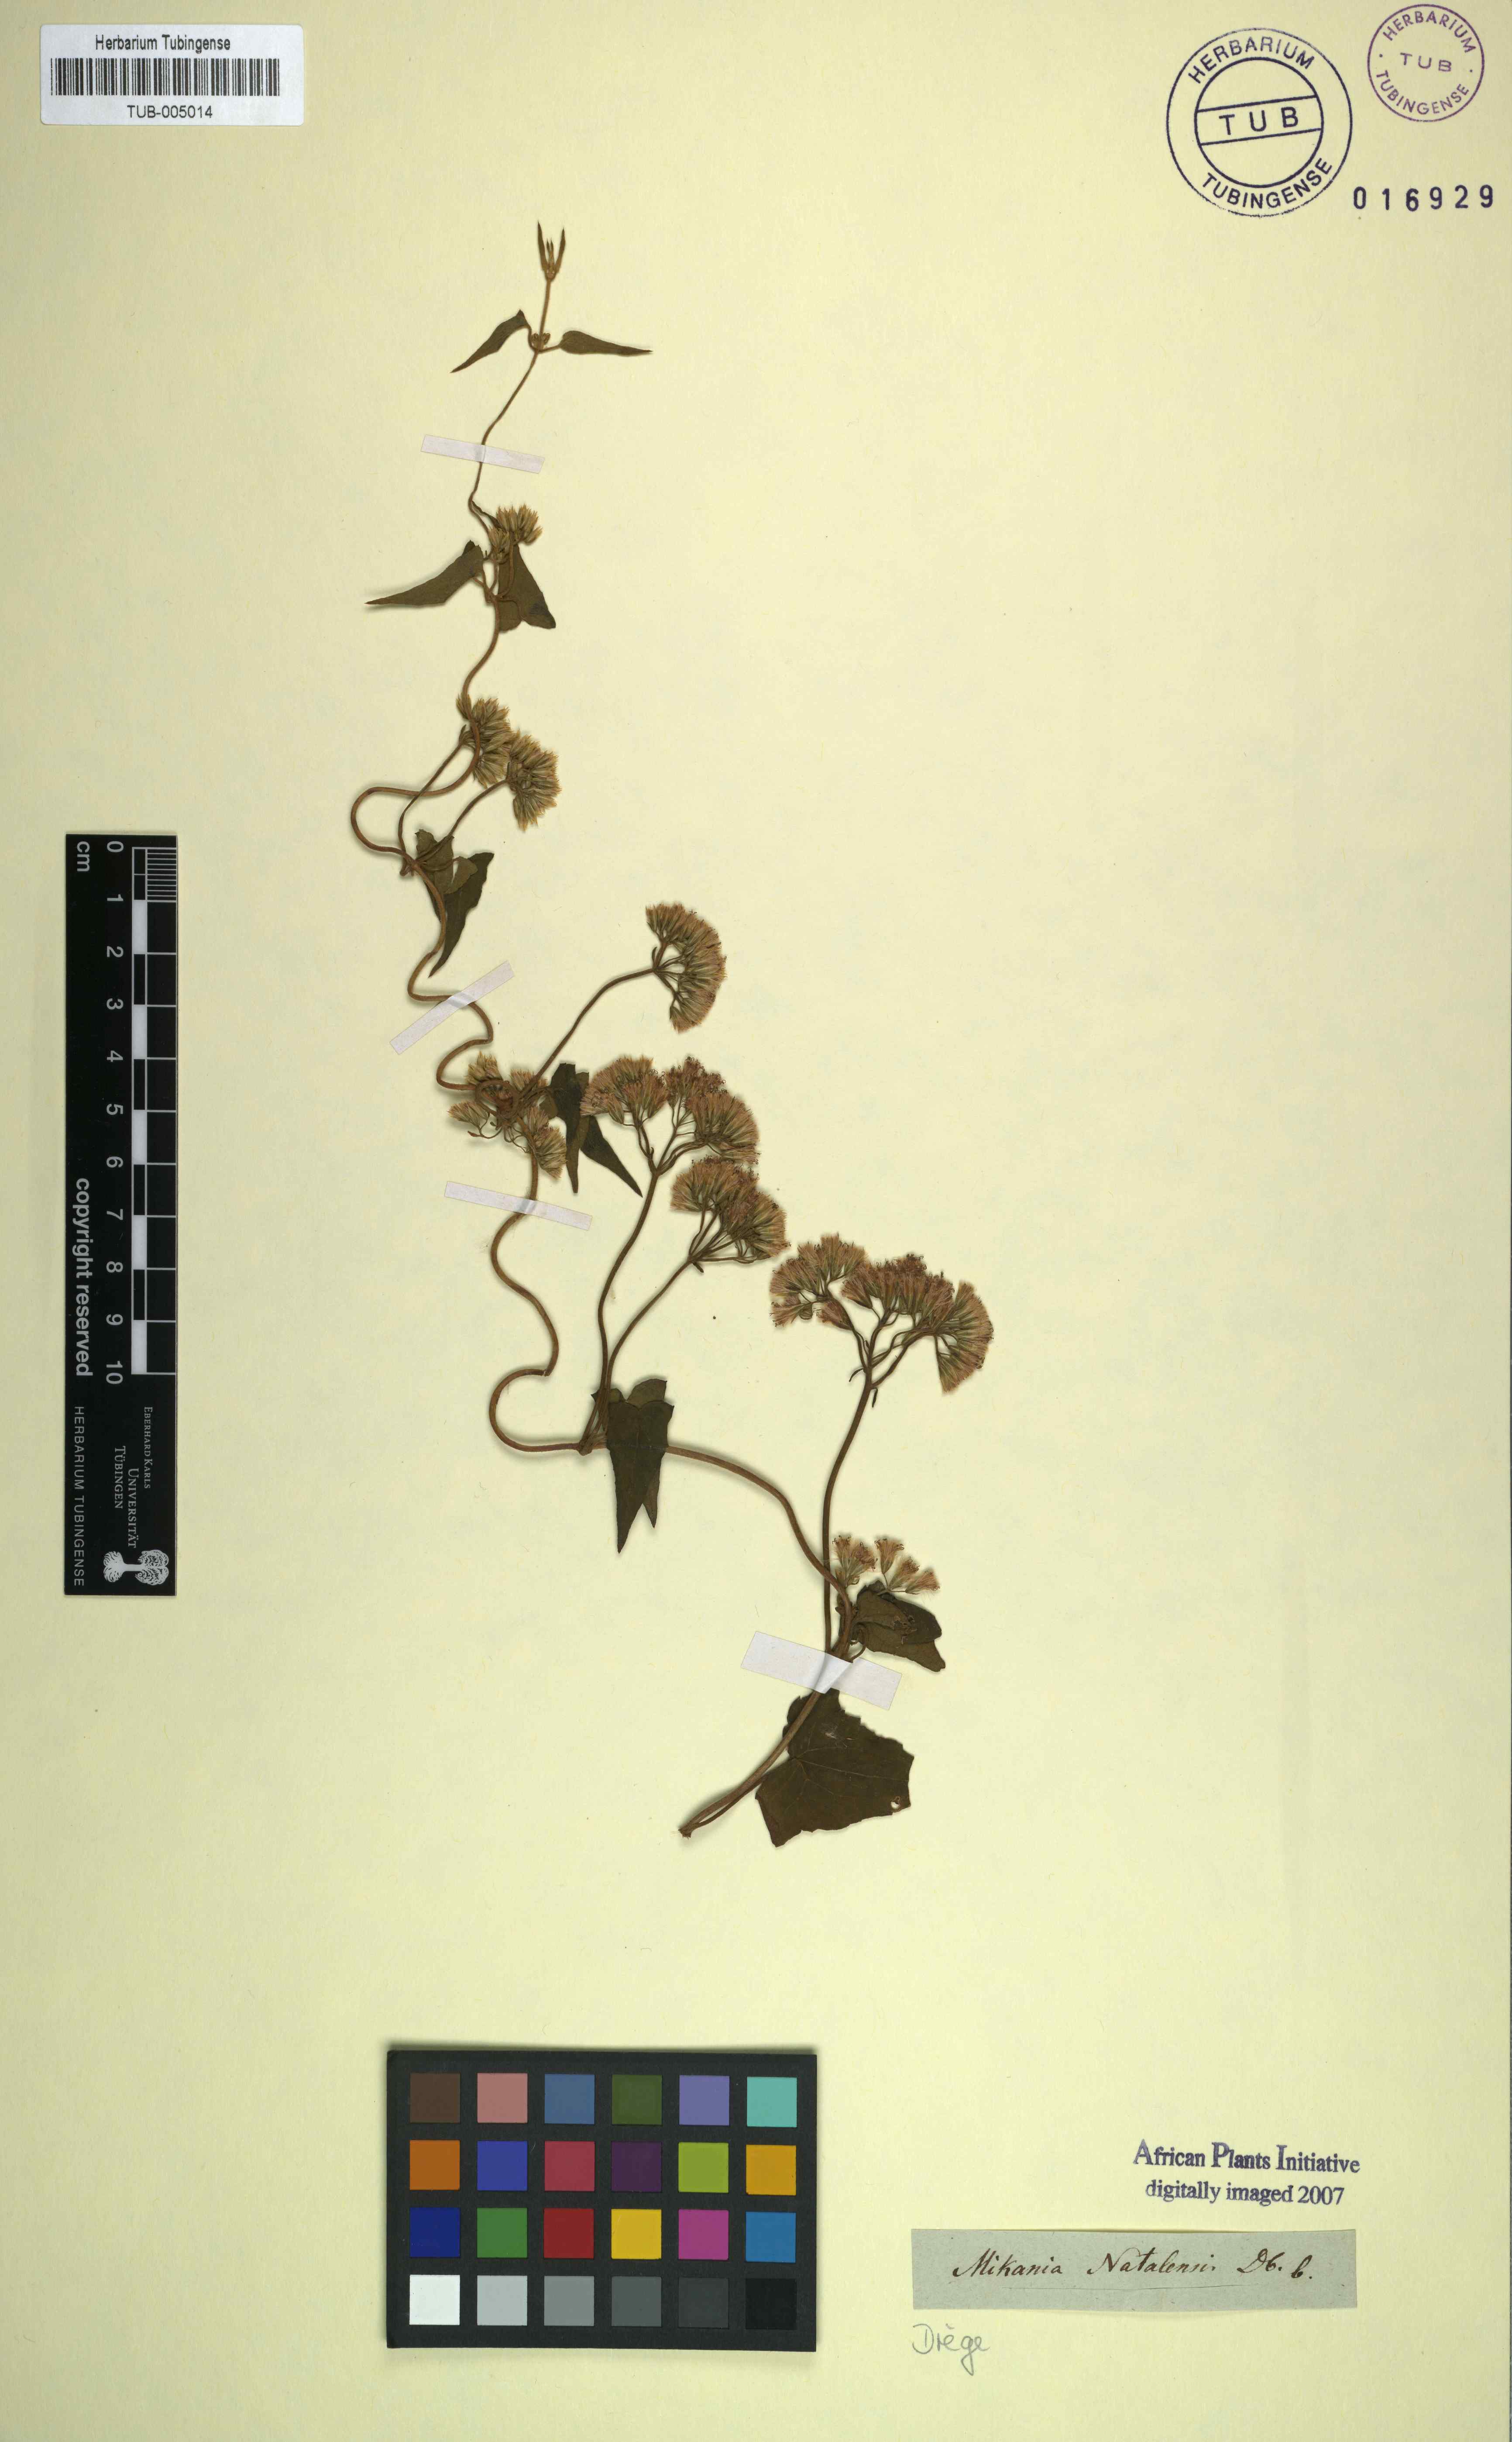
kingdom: Plantae
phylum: Tracheophyta
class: Magnoliopsida
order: Asterales
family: Asteraceae
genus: Mikania
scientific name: Mikania natalensis
